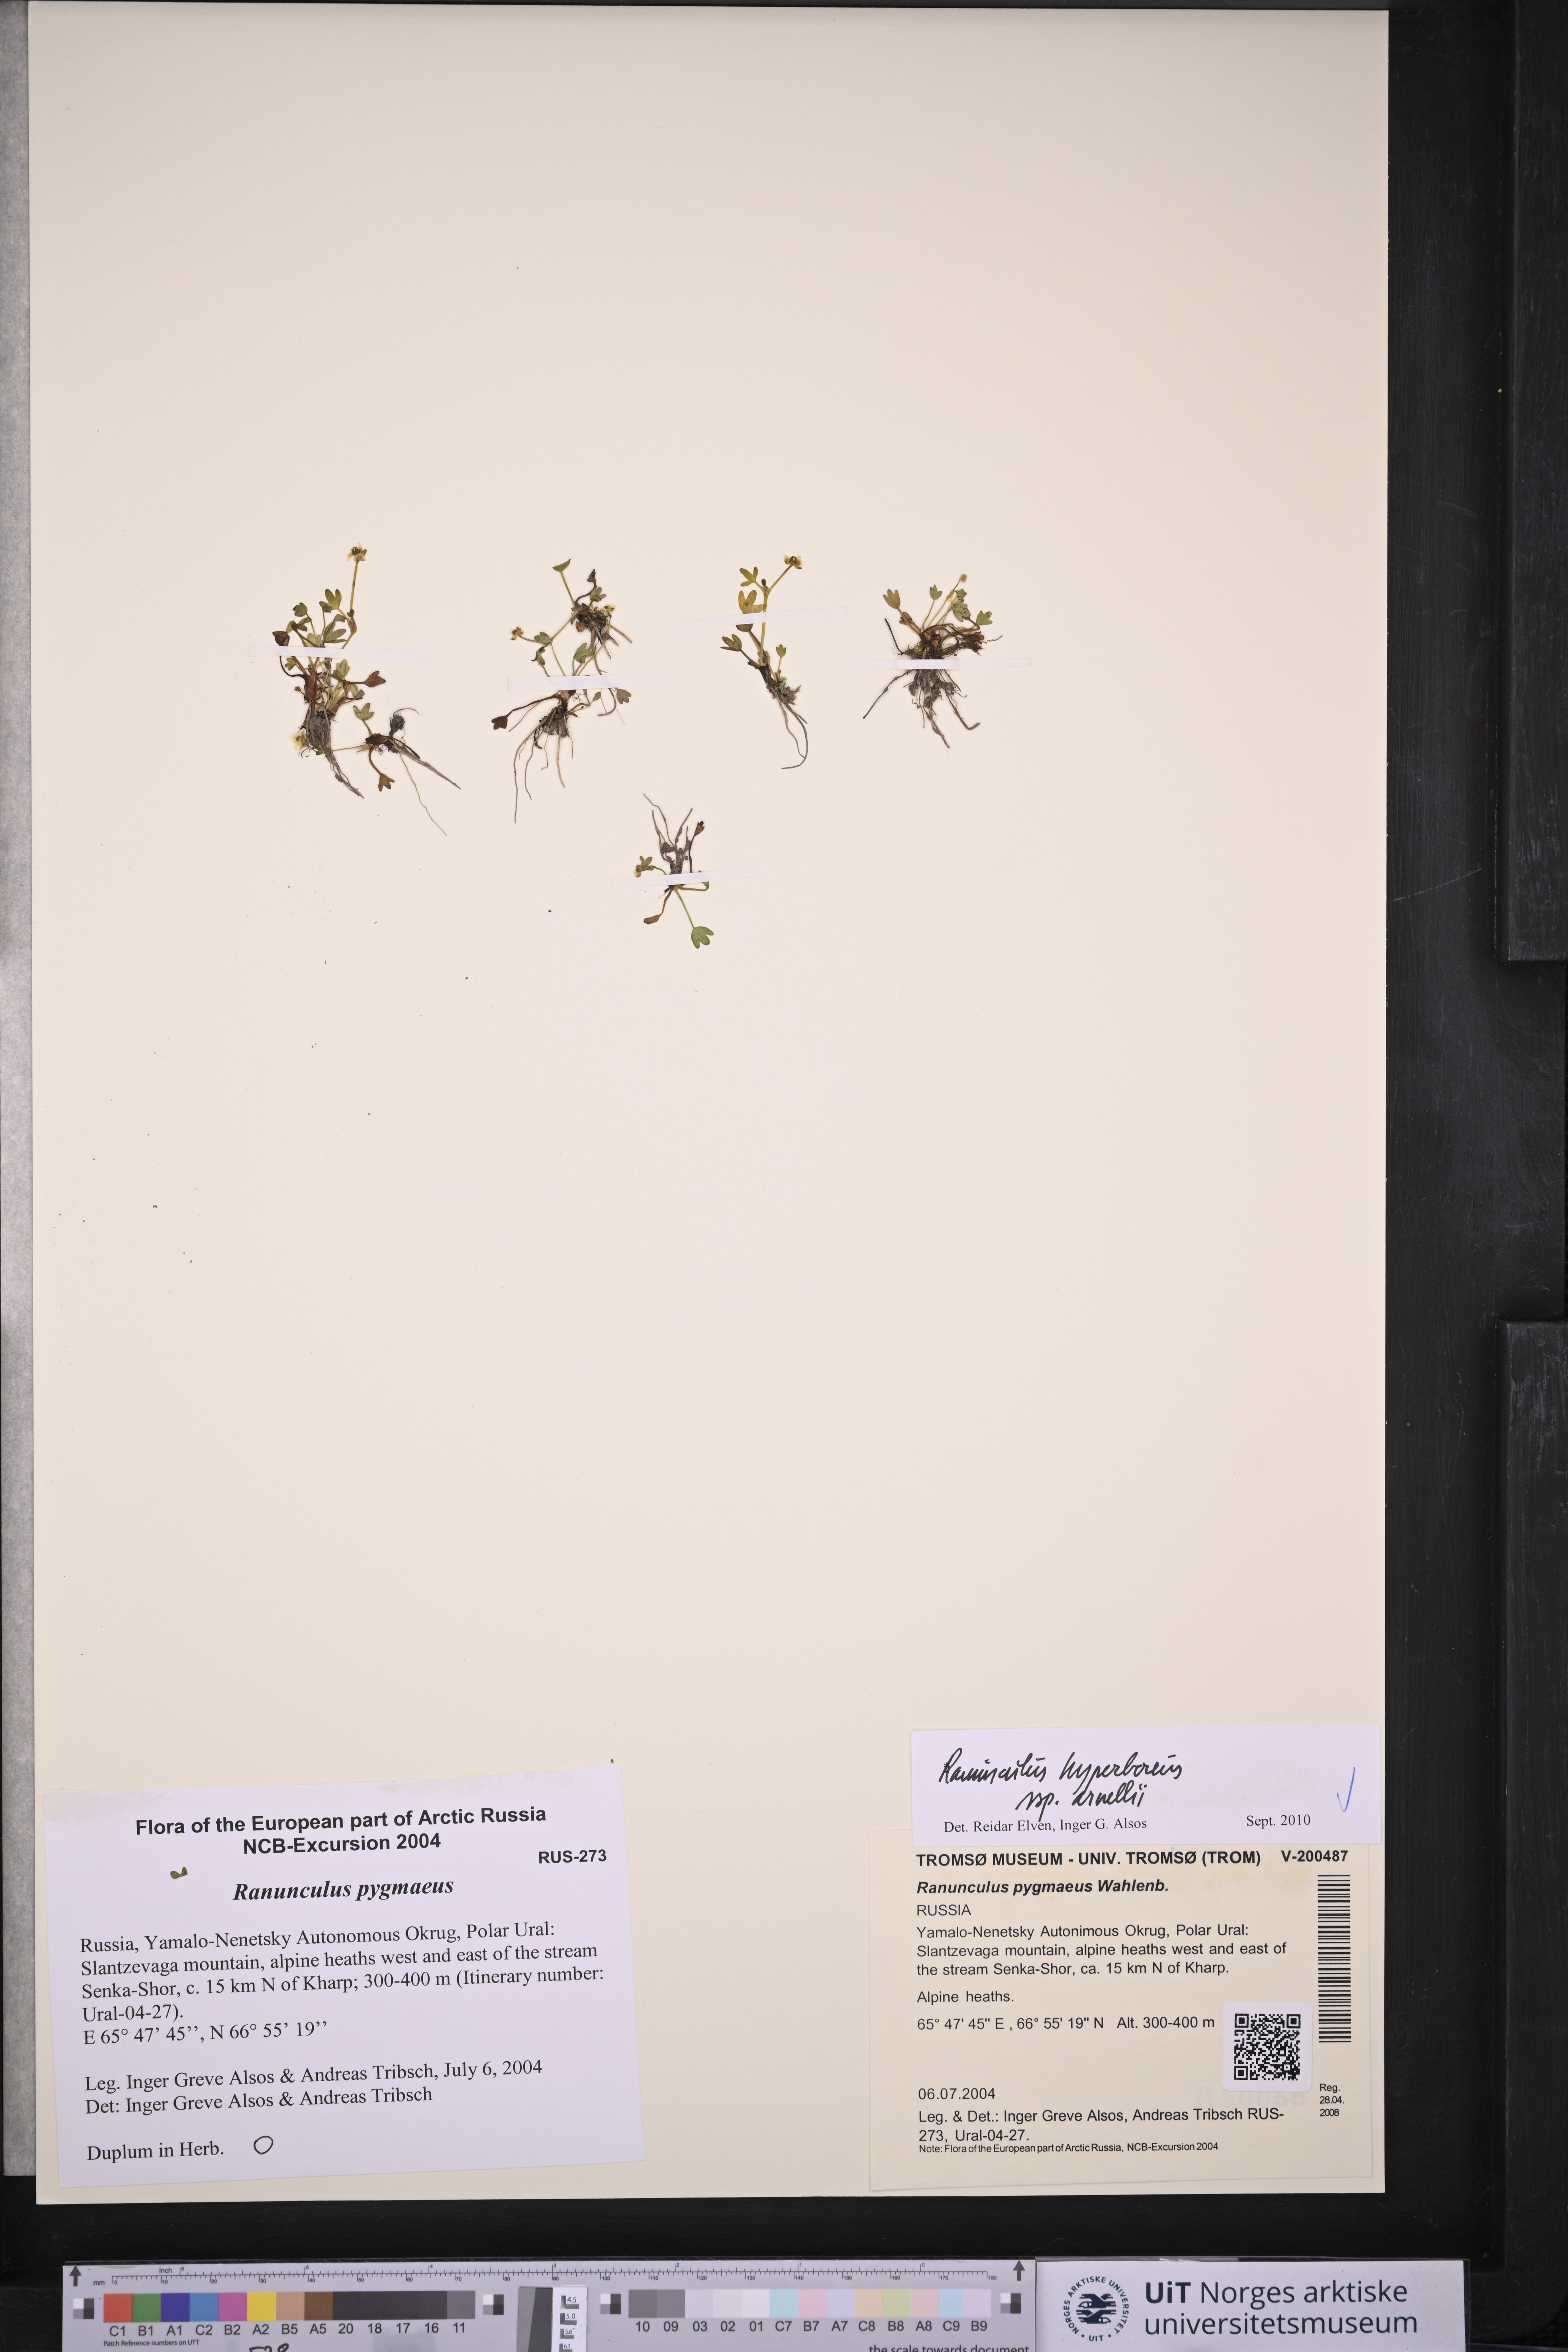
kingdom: Plantae
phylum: Tracheophyta
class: Magnoliopsida
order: Ranunculales
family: Ranunculaceae
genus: Ranunculus
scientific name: Ranunculus hyperboreus
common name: Arctic buttercup
